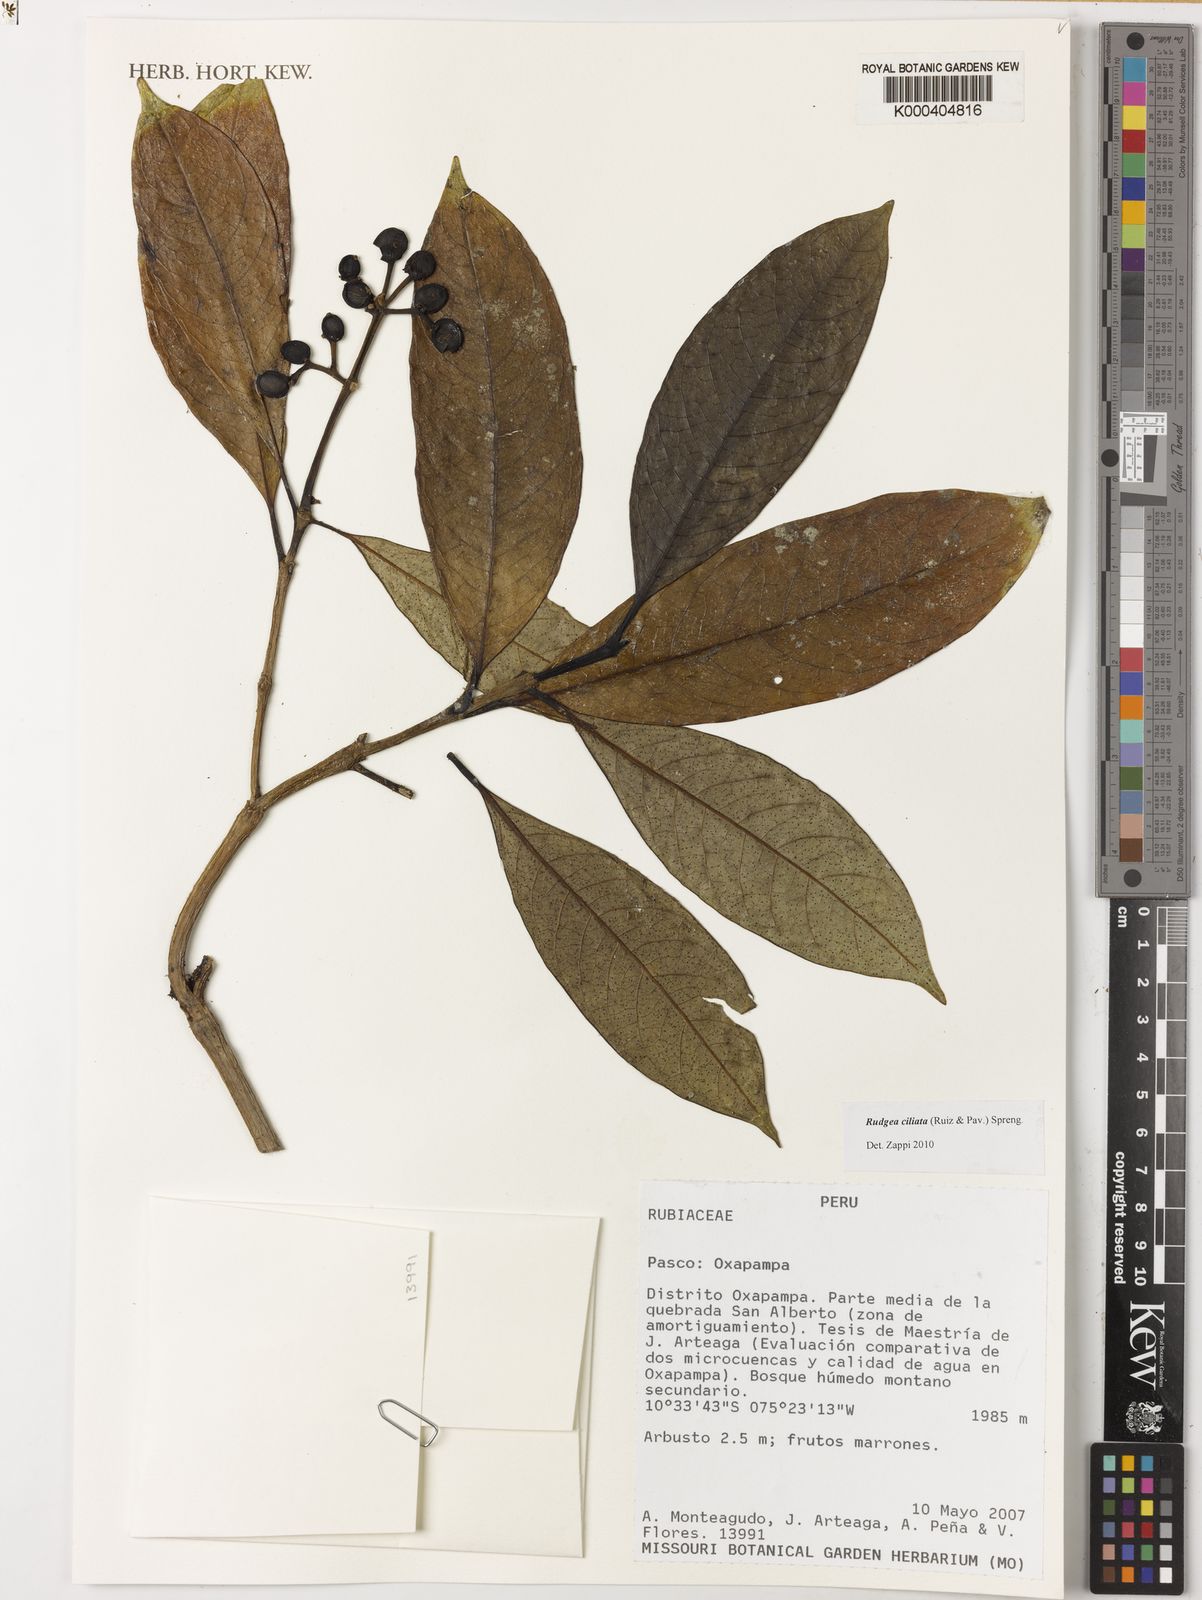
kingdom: Plantae
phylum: Tracheophyta
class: Magnoliopsida
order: Gentianales
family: Rubiaceae
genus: Rudgea
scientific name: Rudgea ciliata
